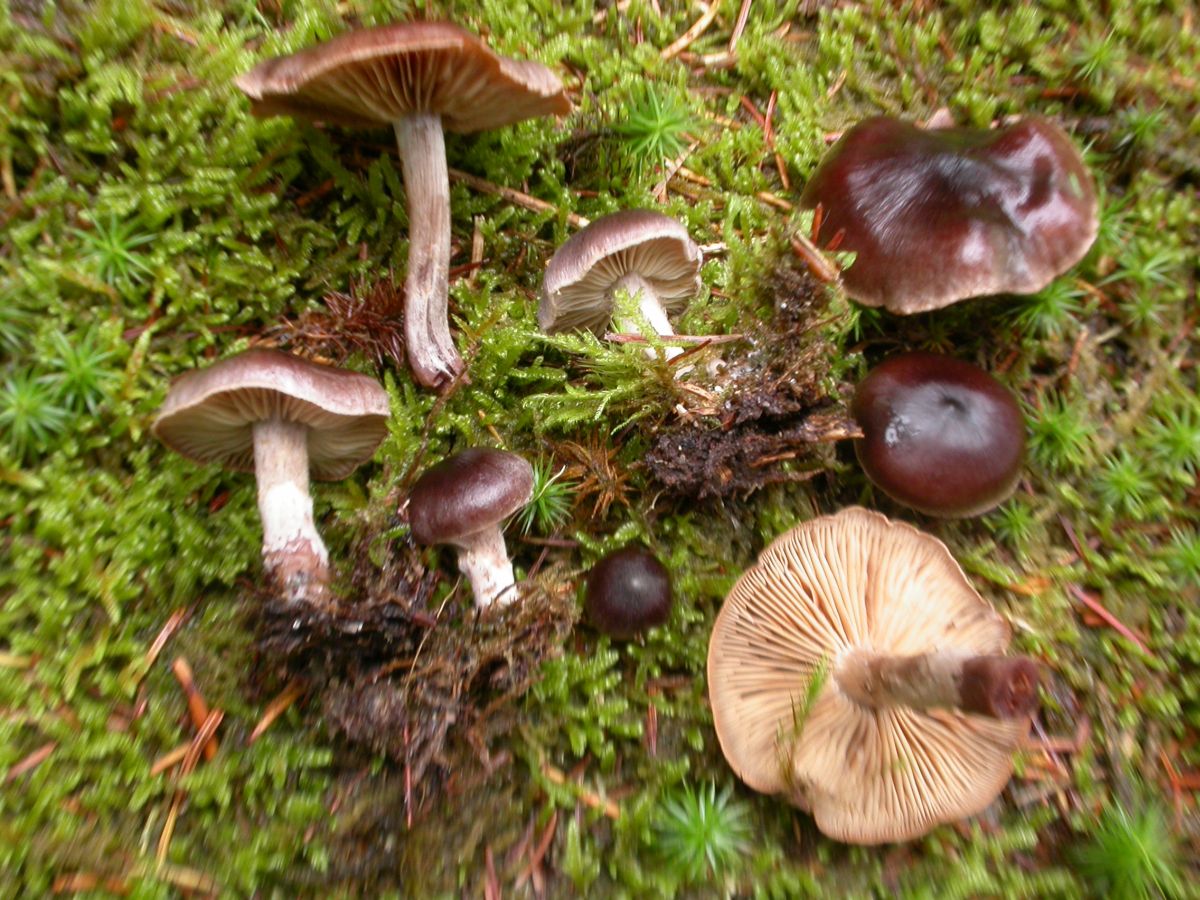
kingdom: Fungi
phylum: Basidiomycota
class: Agaricomycetes
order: Agaricales
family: Cortinariaceae
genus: Cortinarius
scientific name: Cortinarius inconspicuus
